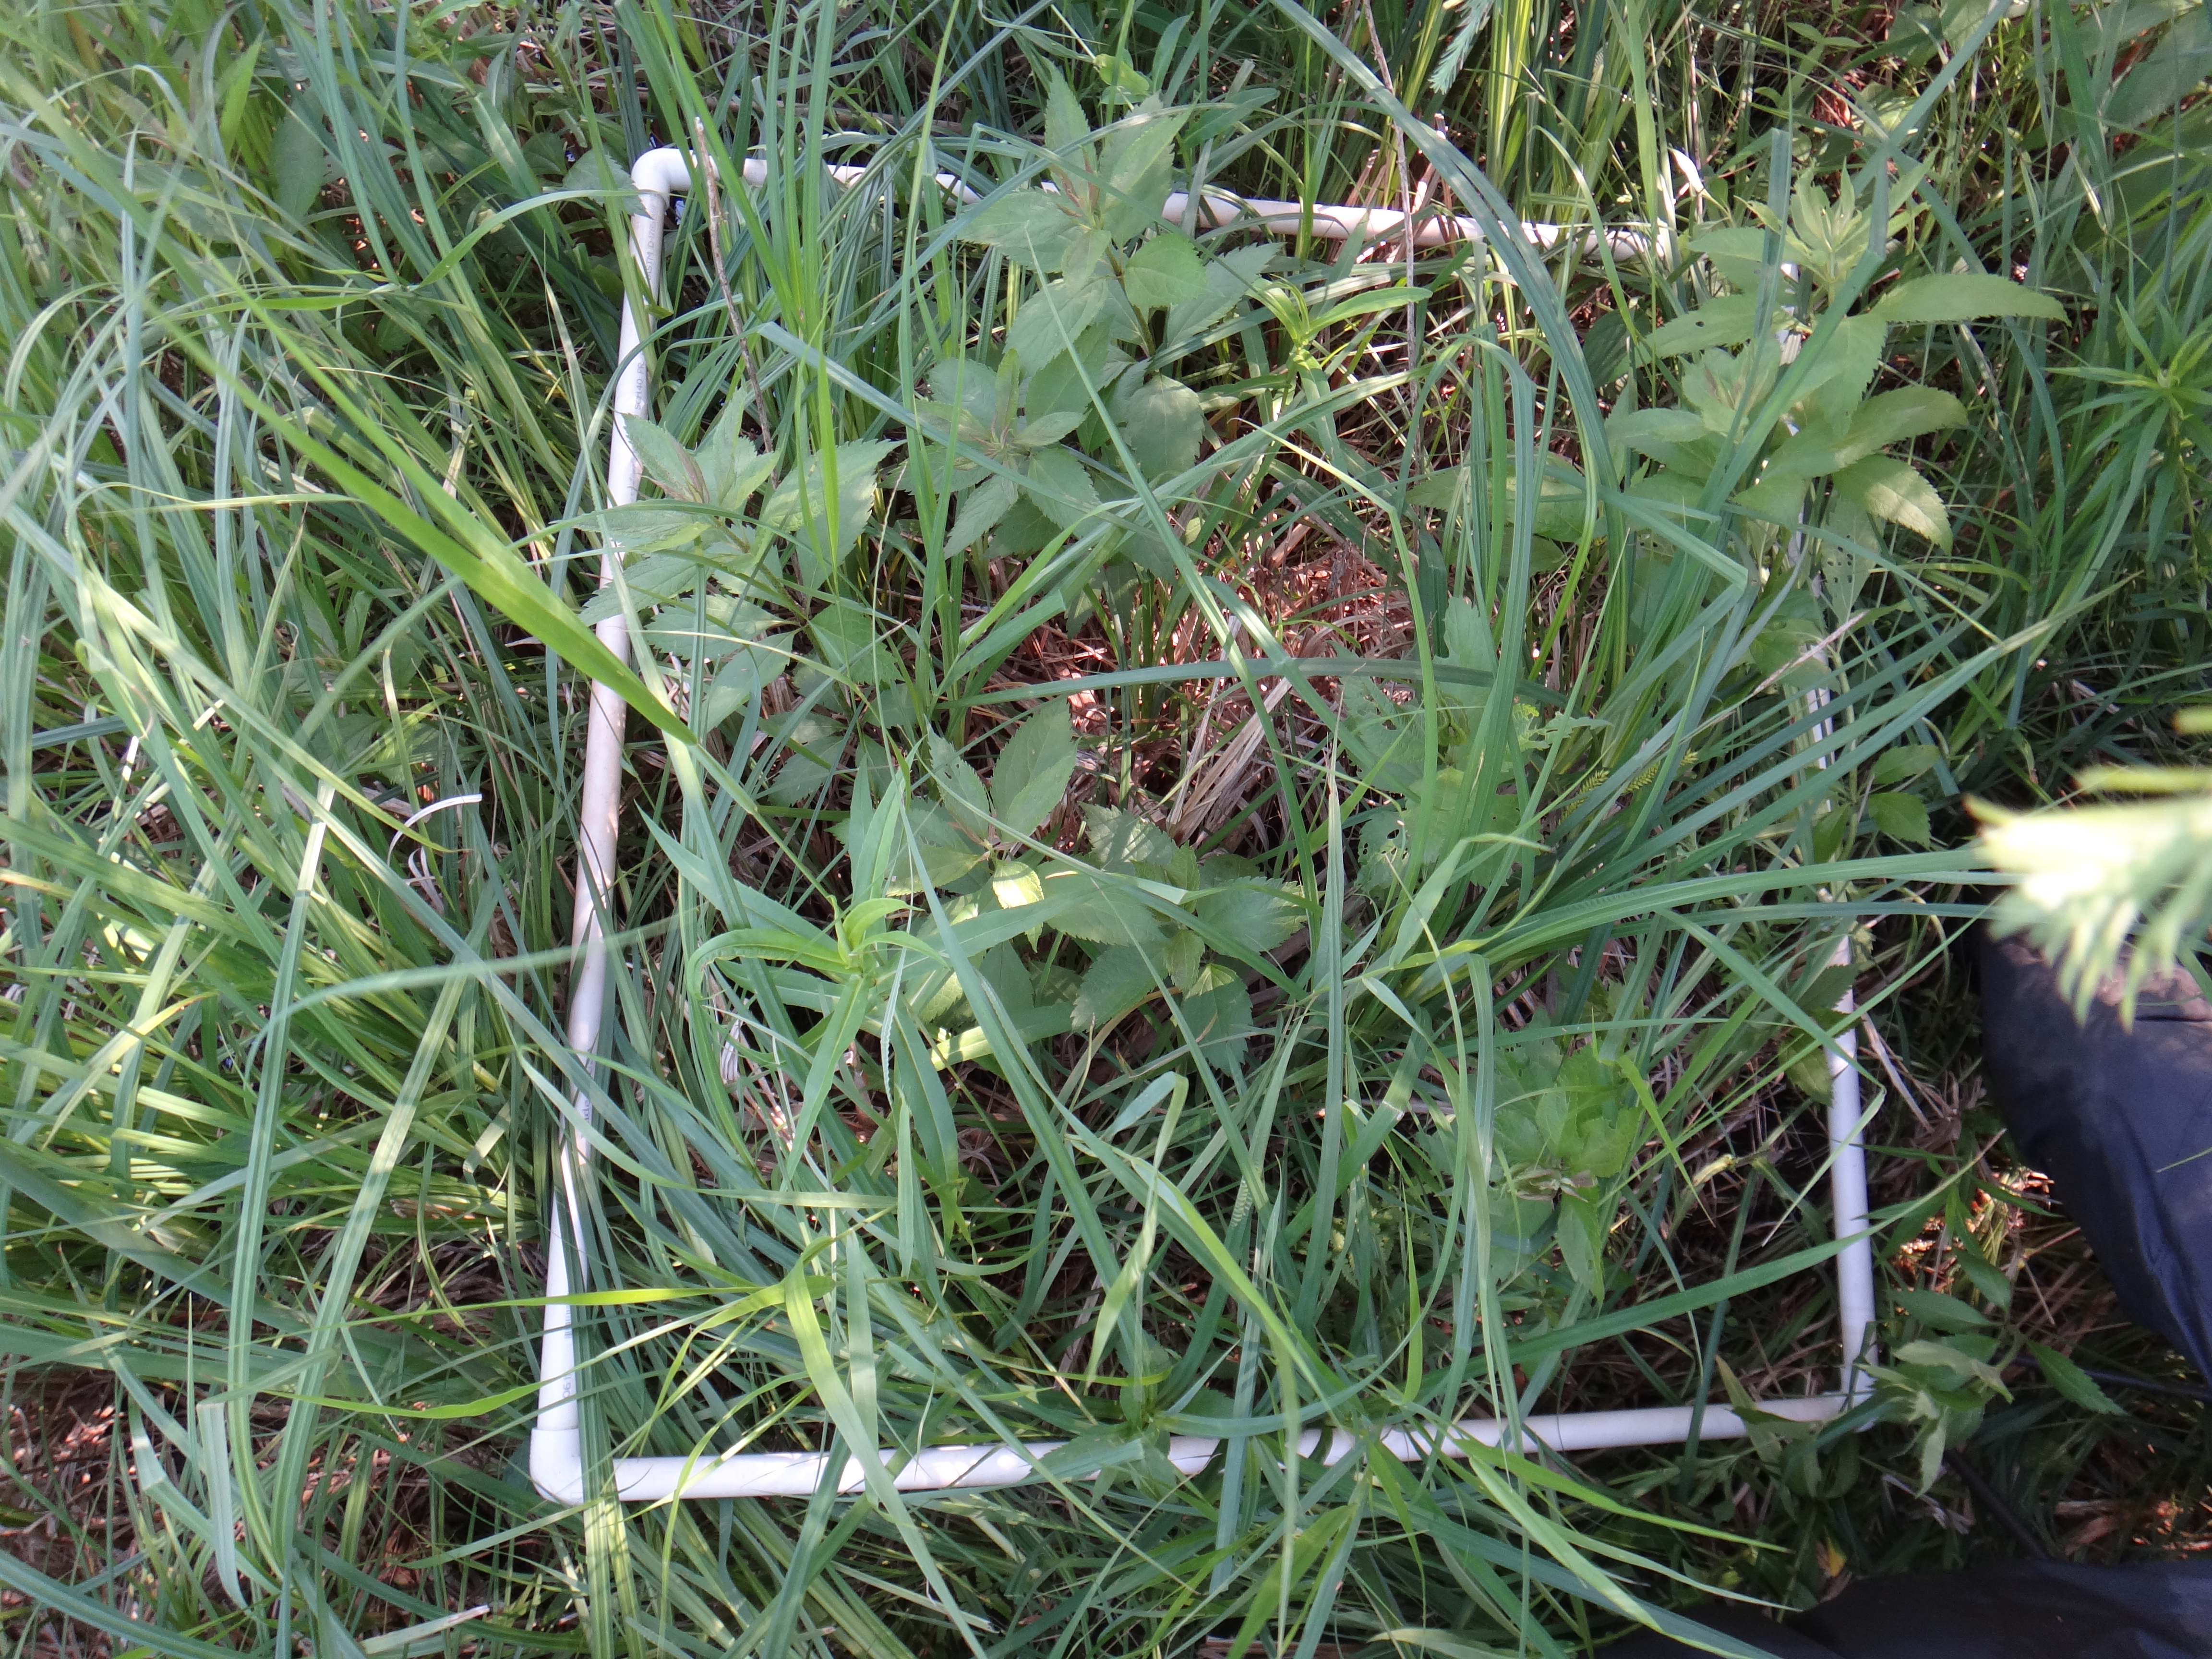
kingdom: Plantae
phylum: Tracheophyta
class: Magnoliopsida
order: Asterales
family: Campanulaceae
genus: Palustricodon
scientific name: Palustricodon aparinoides
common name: Bedstraw bellflower
